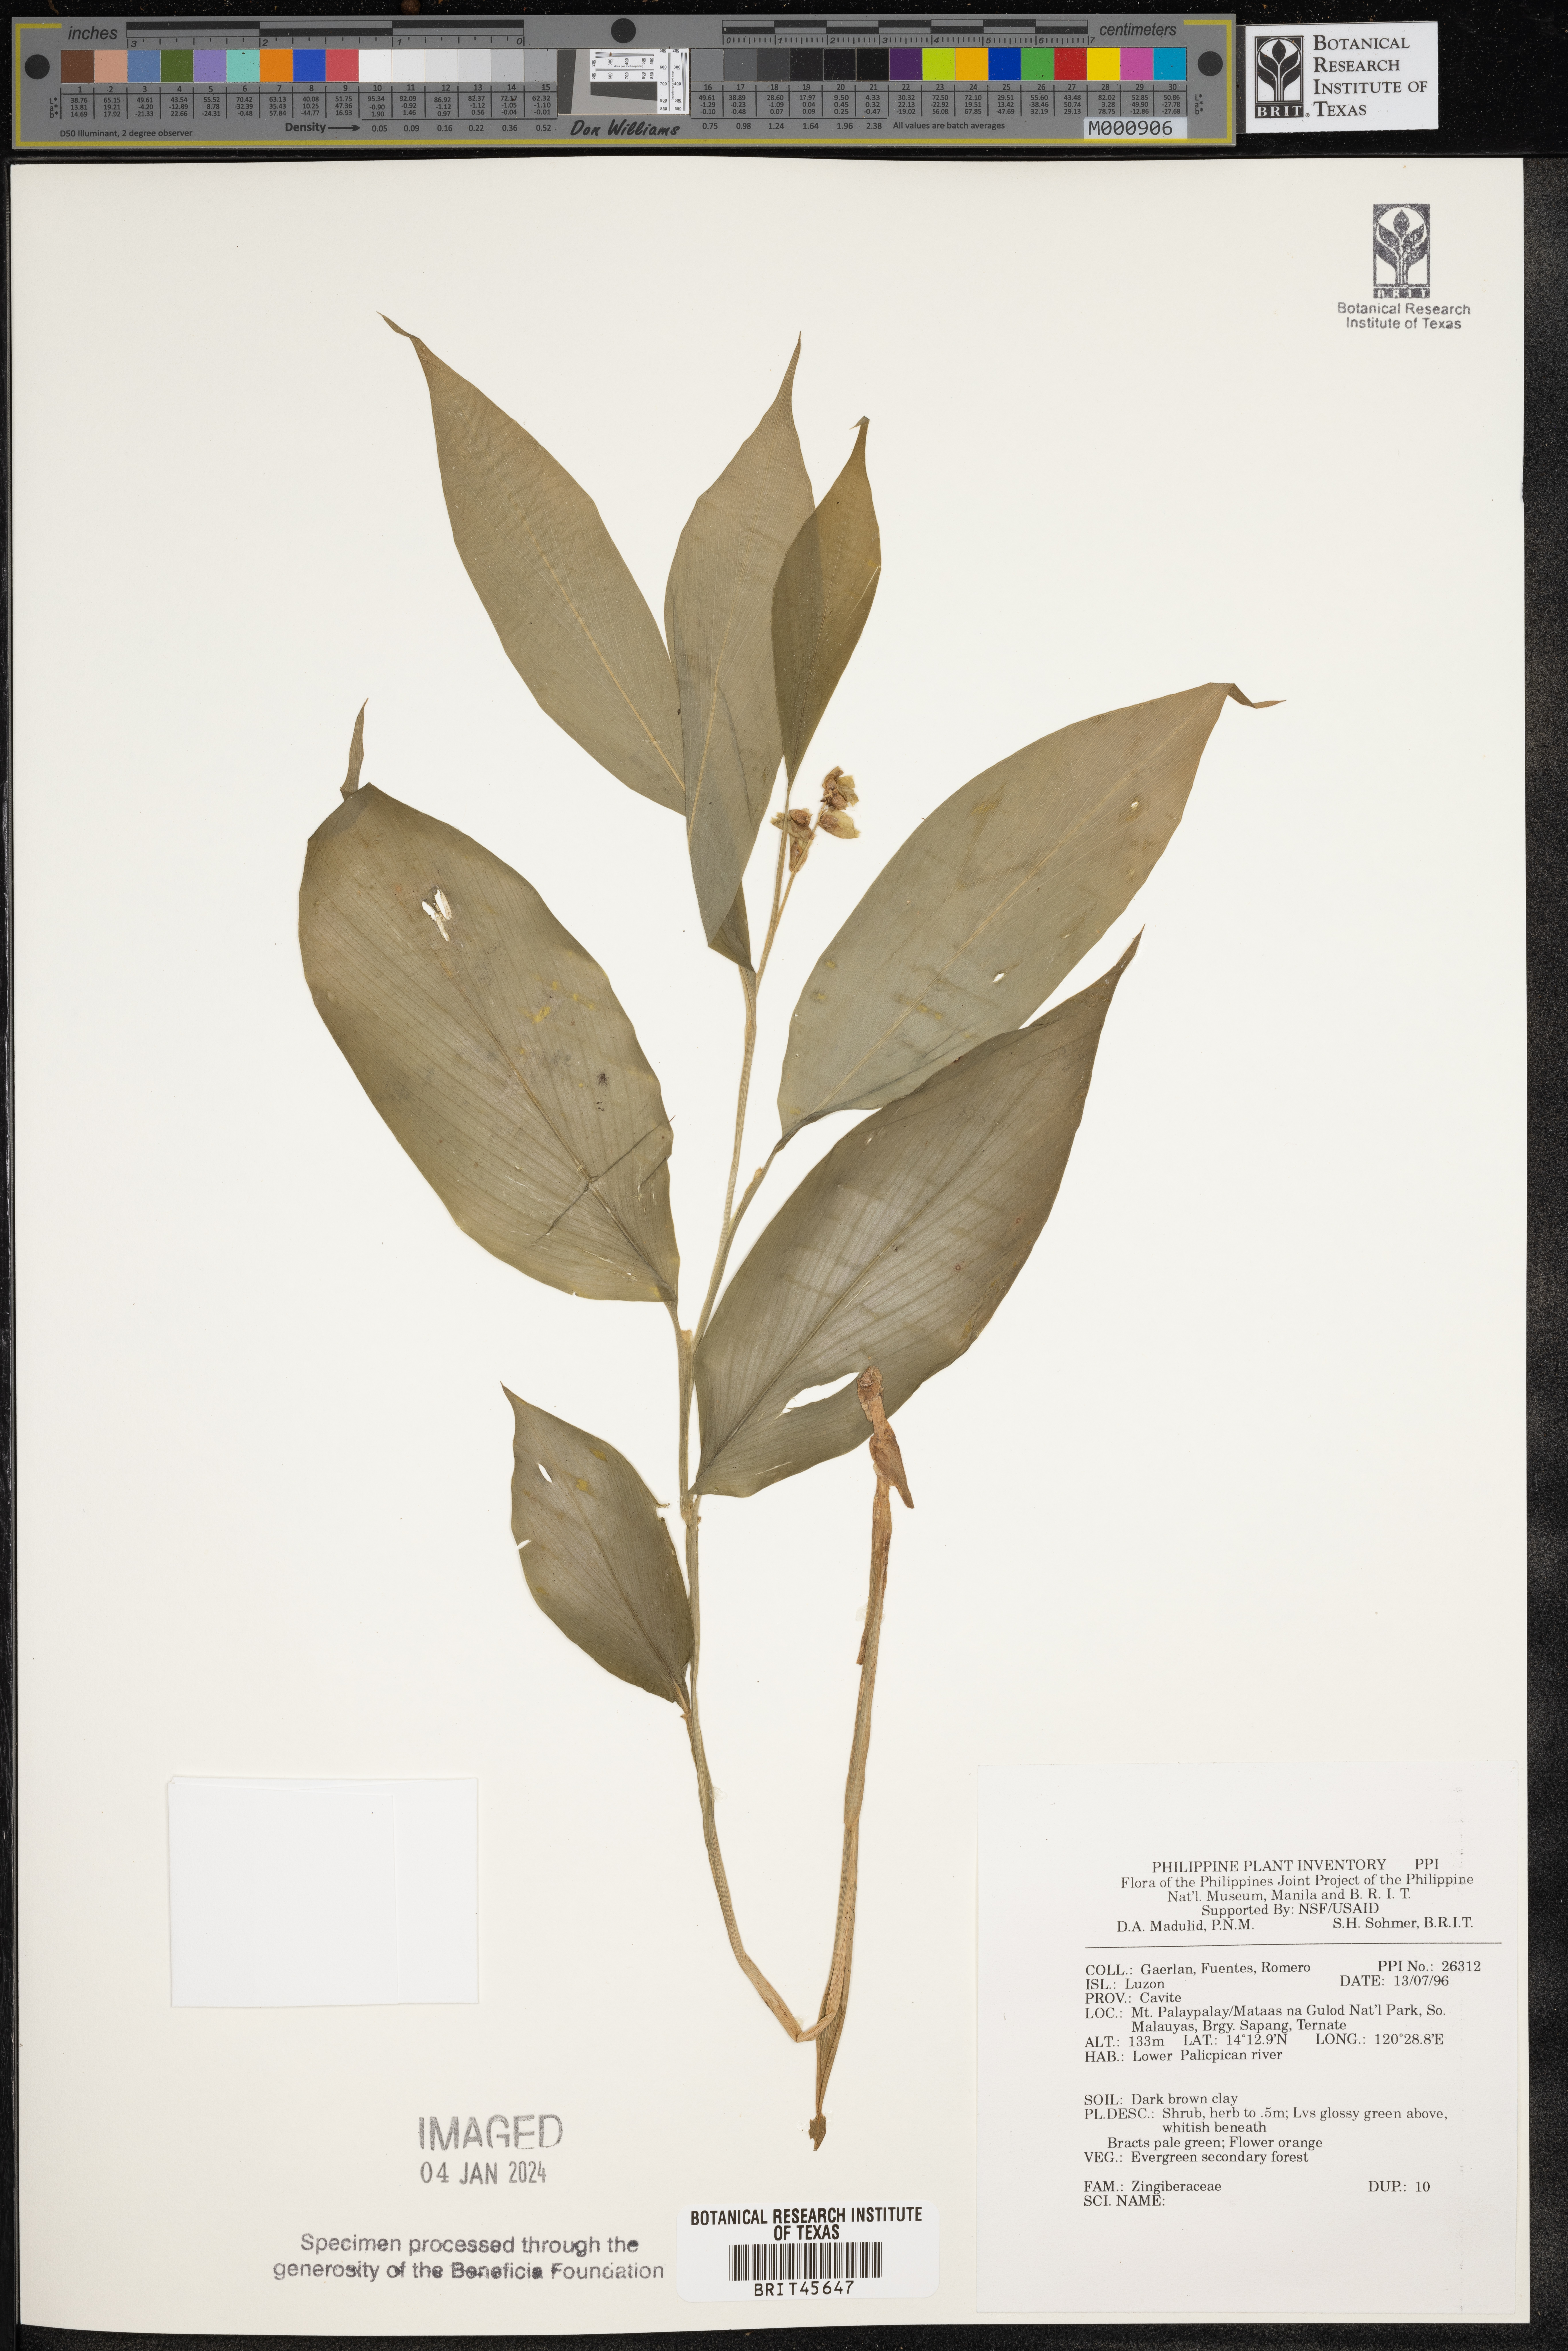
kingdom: Plantae
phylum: Tracheophyta
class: Liliopsida
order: Zingiberales
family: Zingiberaceae
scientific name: Zingiberaceae
